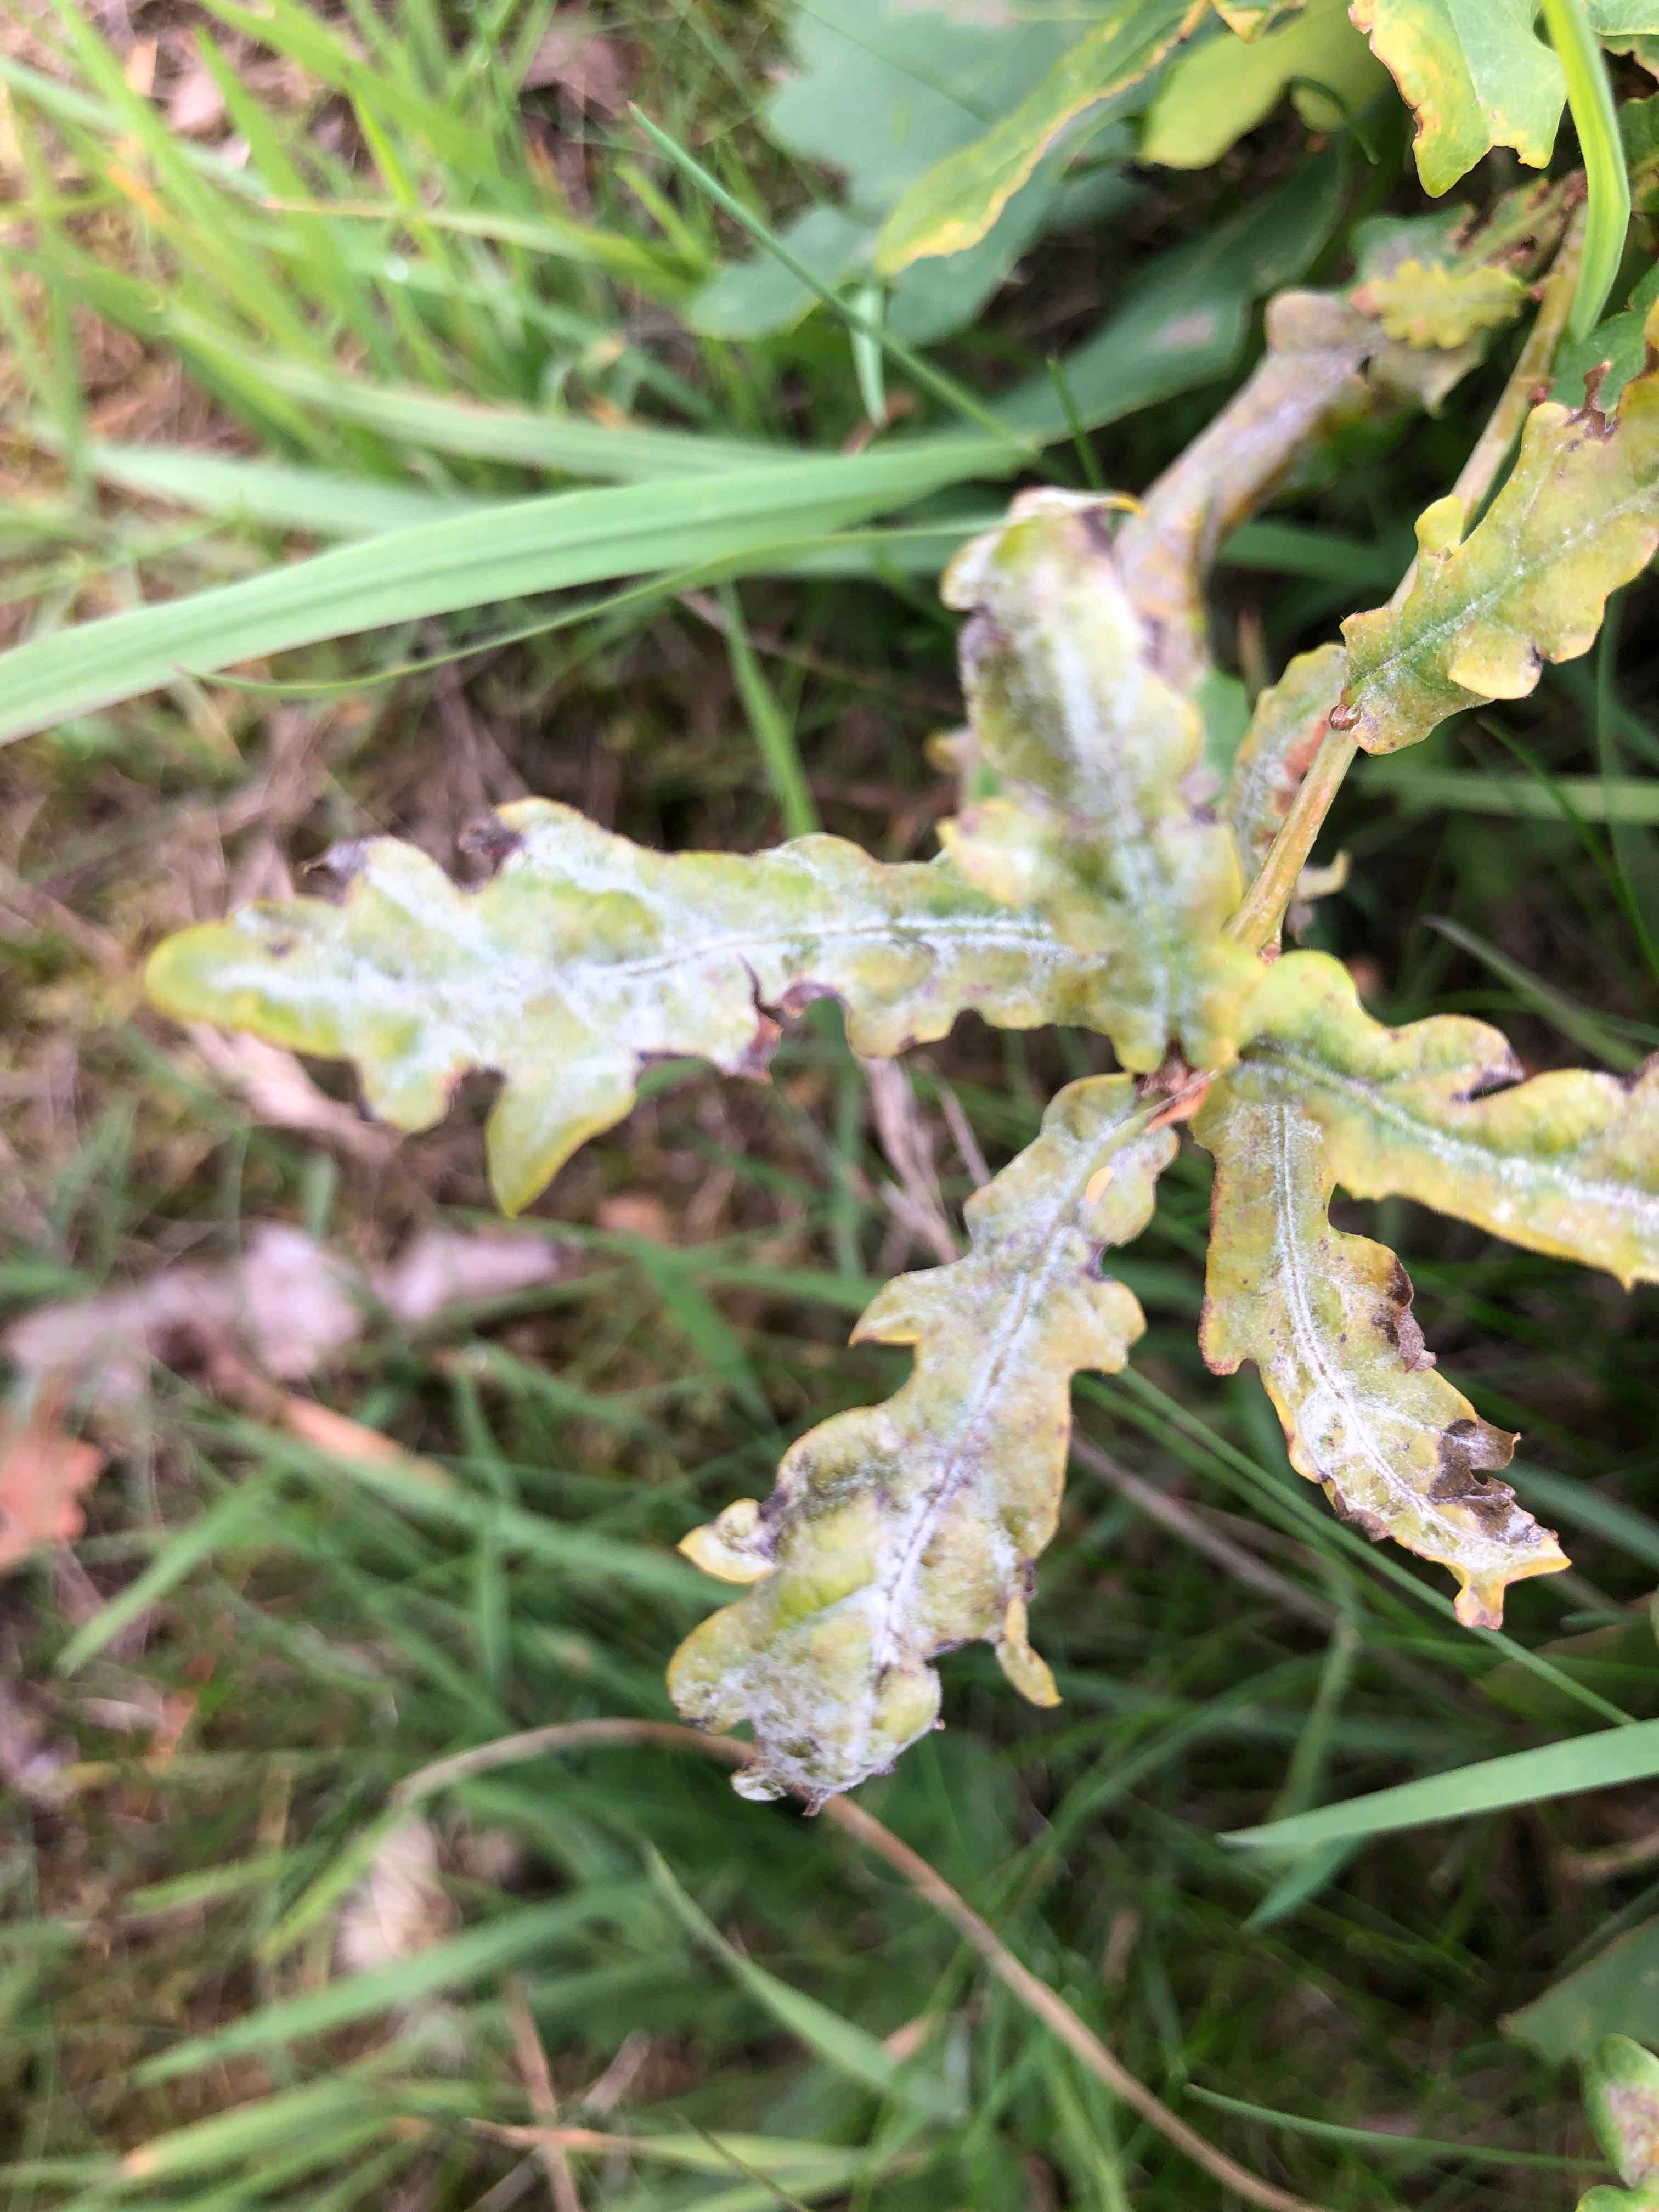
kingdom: Fungi
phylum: Ascomycota
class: Leotiomycetes
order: Helotiales
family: Erysiphaceae
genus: Erysiphe
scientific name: Erysiphe alphitoides
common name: ege-meldug
